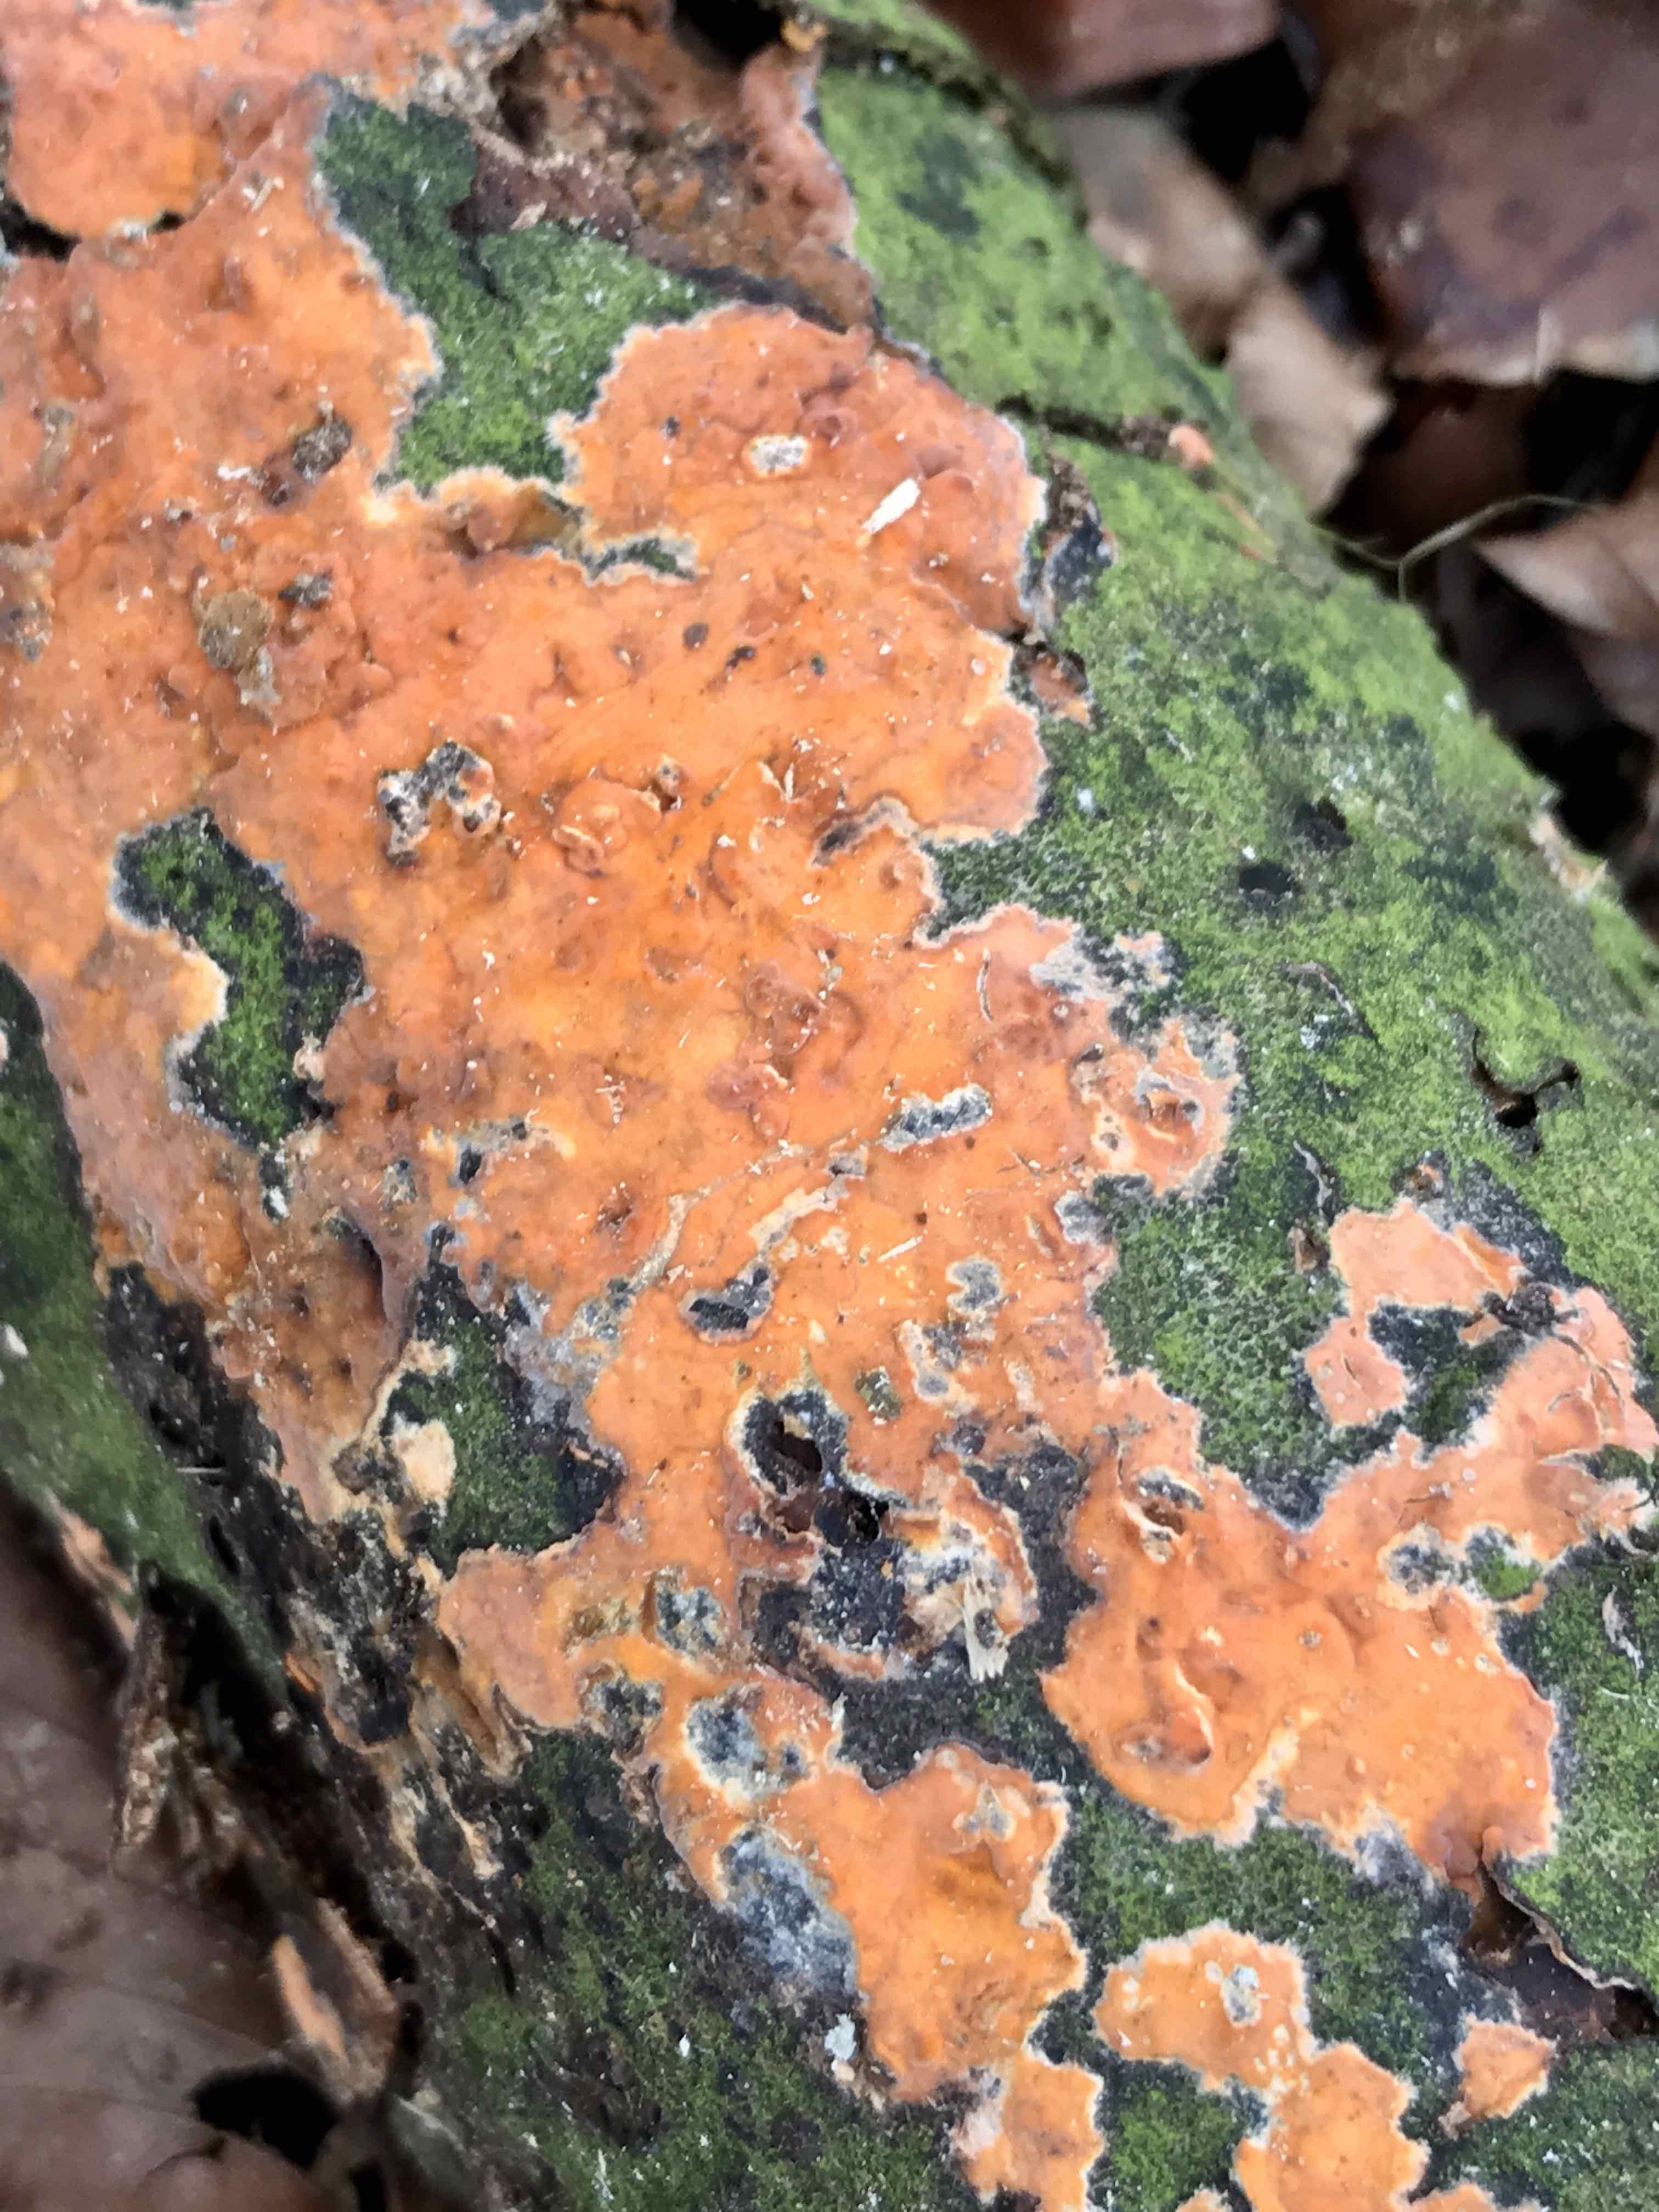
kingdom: Fungi
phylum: Basidiomycota
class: Agaricomycetes
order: Russulales
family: Peniophoraceae
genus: Peniophora
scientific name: Peniophora incarnata
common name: laksefarvet voksskind
